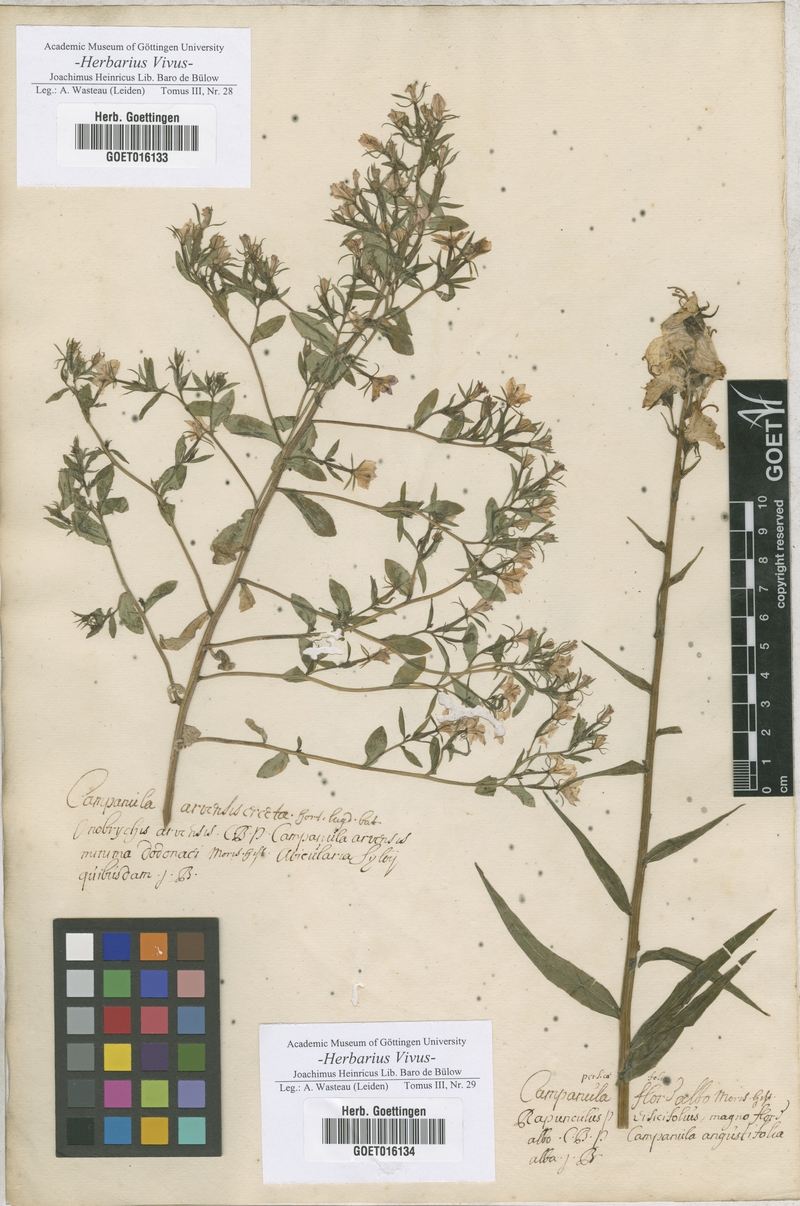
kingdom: Plantae
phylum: Tracheophyta
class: Magnoliopsida
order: Asterales
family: Campanulaceae
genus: Campanula
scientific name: Campanula speculum
